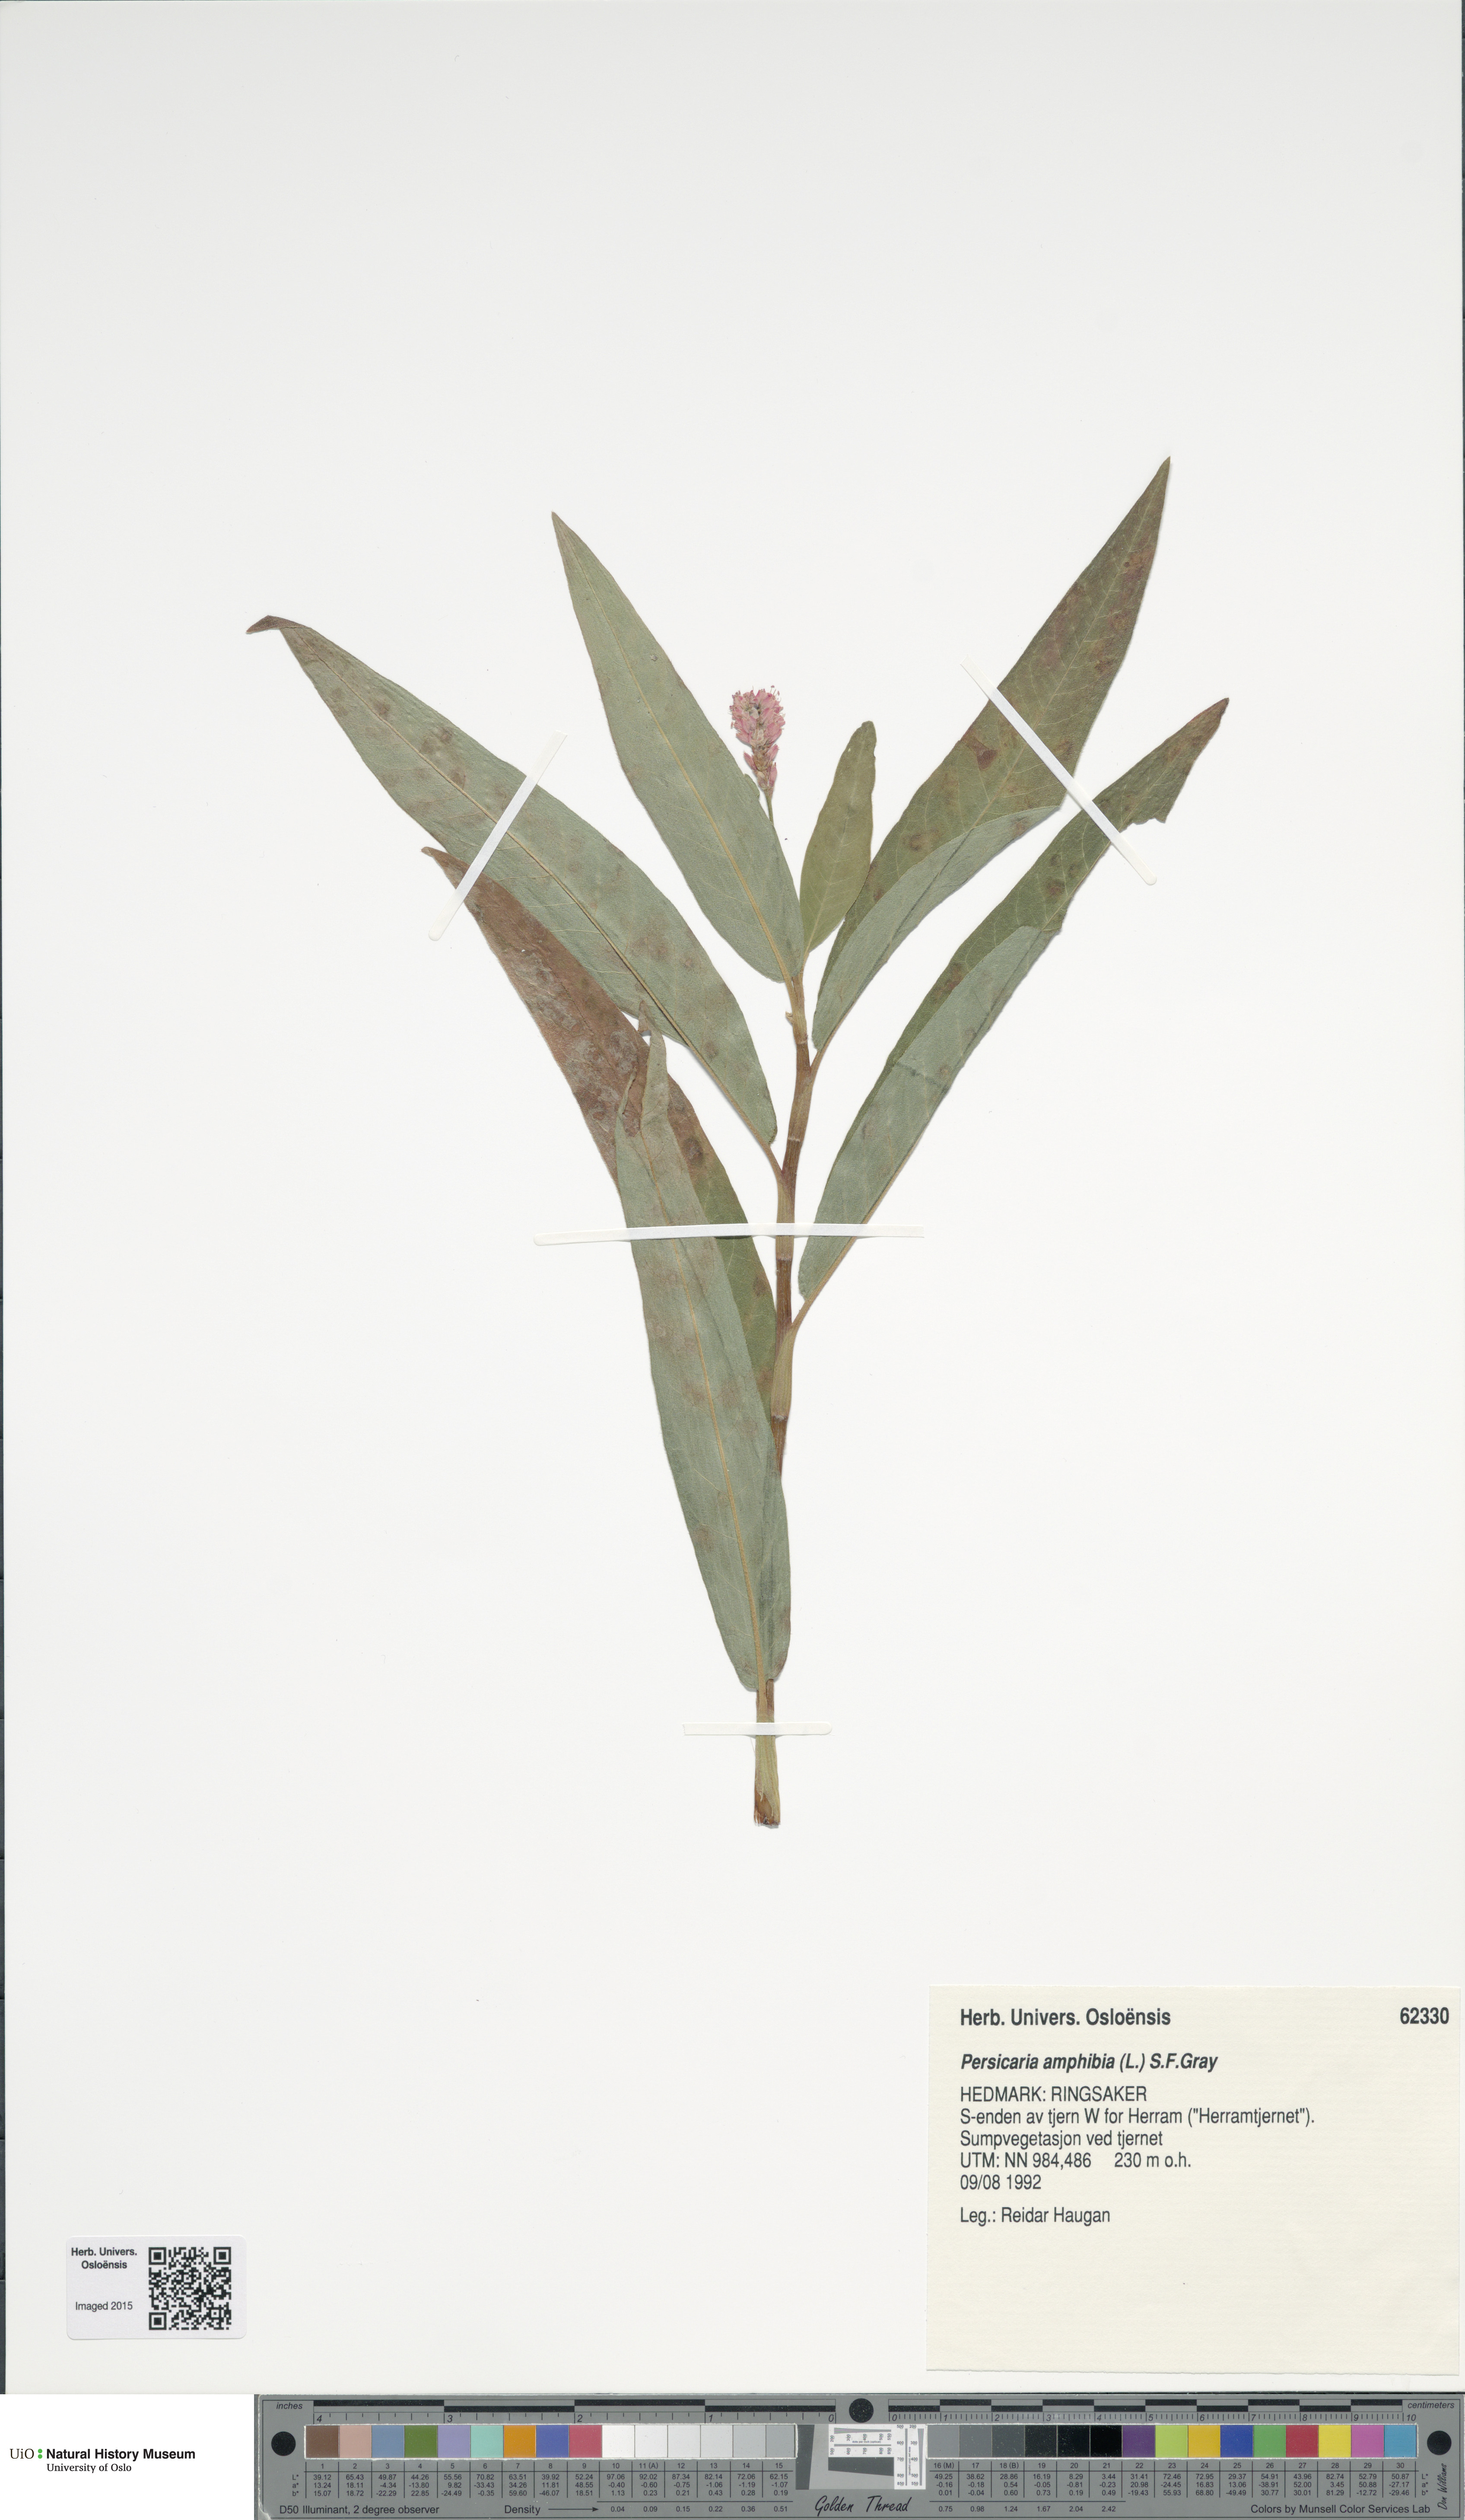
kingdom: Plantae
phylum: Tracheophyta
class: Magnoliopsida
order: Caryophyllales
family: Polygonaceae
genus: Persicaria
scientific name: Persicaria amphibia
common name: Amphibious bistort
